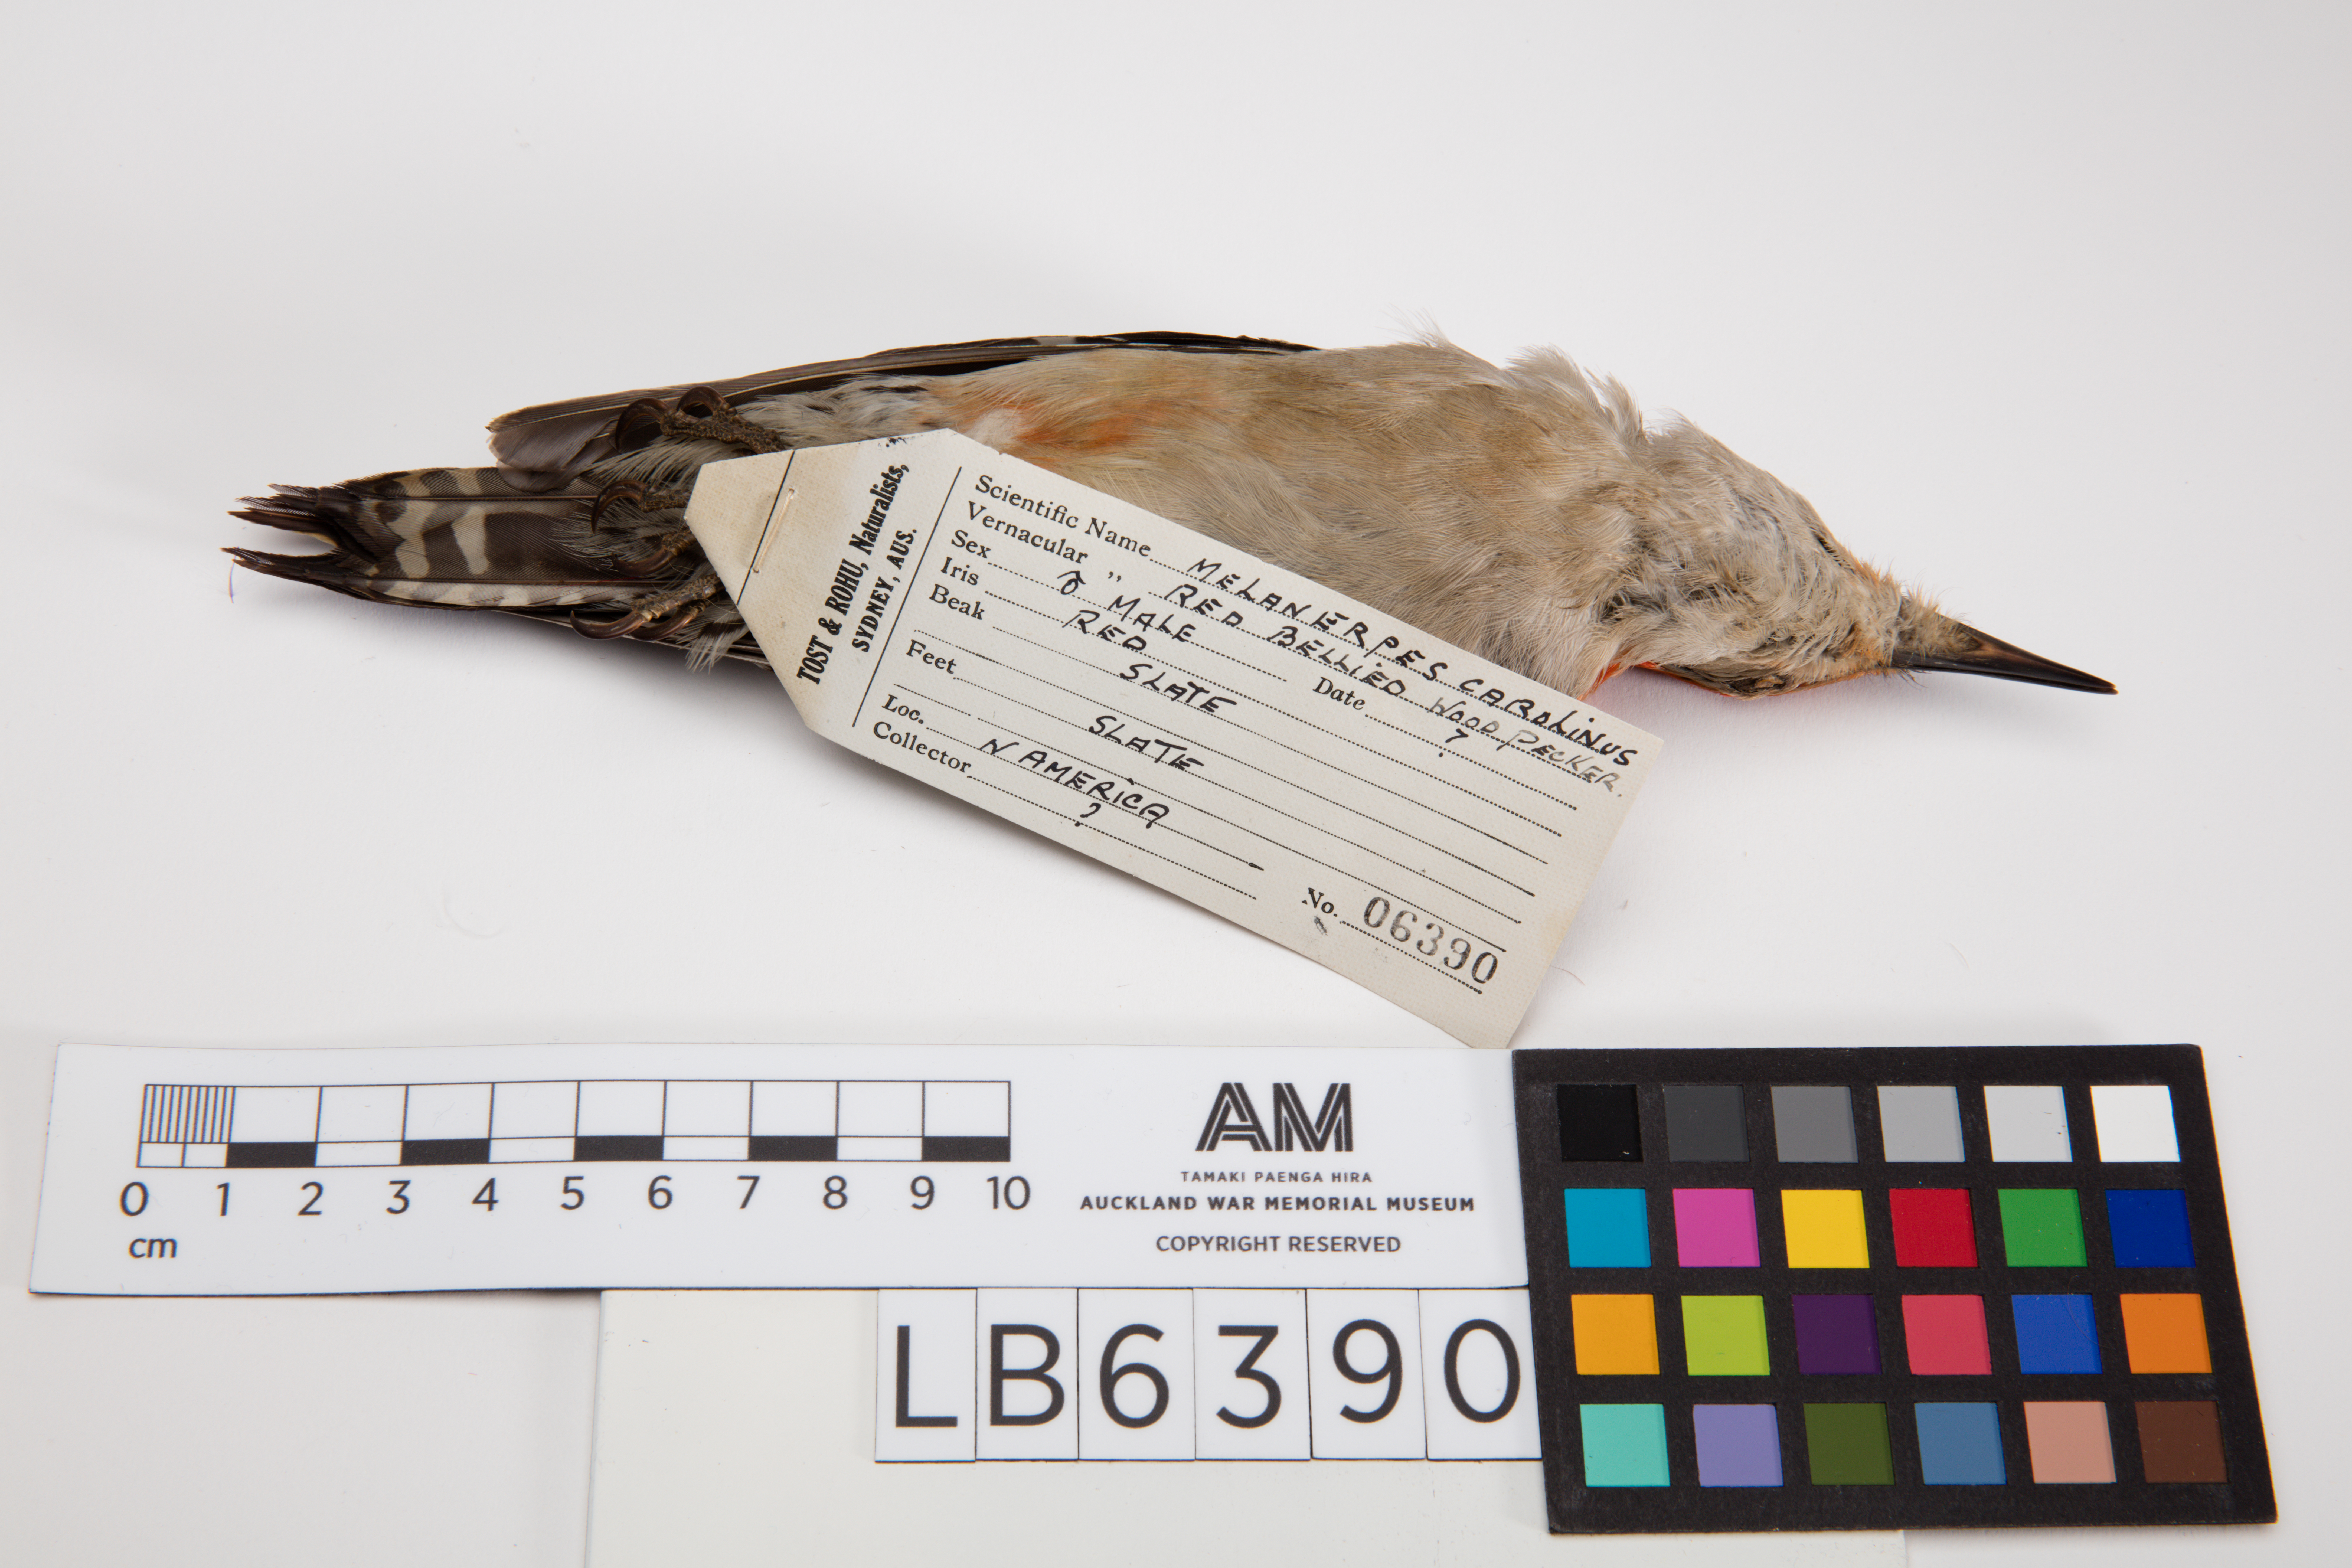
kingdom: Animalia
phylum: Chordata
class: Aves
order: Piciformes
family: Picidae
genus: Melanerpes
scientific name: Melanerpes carolinus
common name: Red-bellied woodpecker
